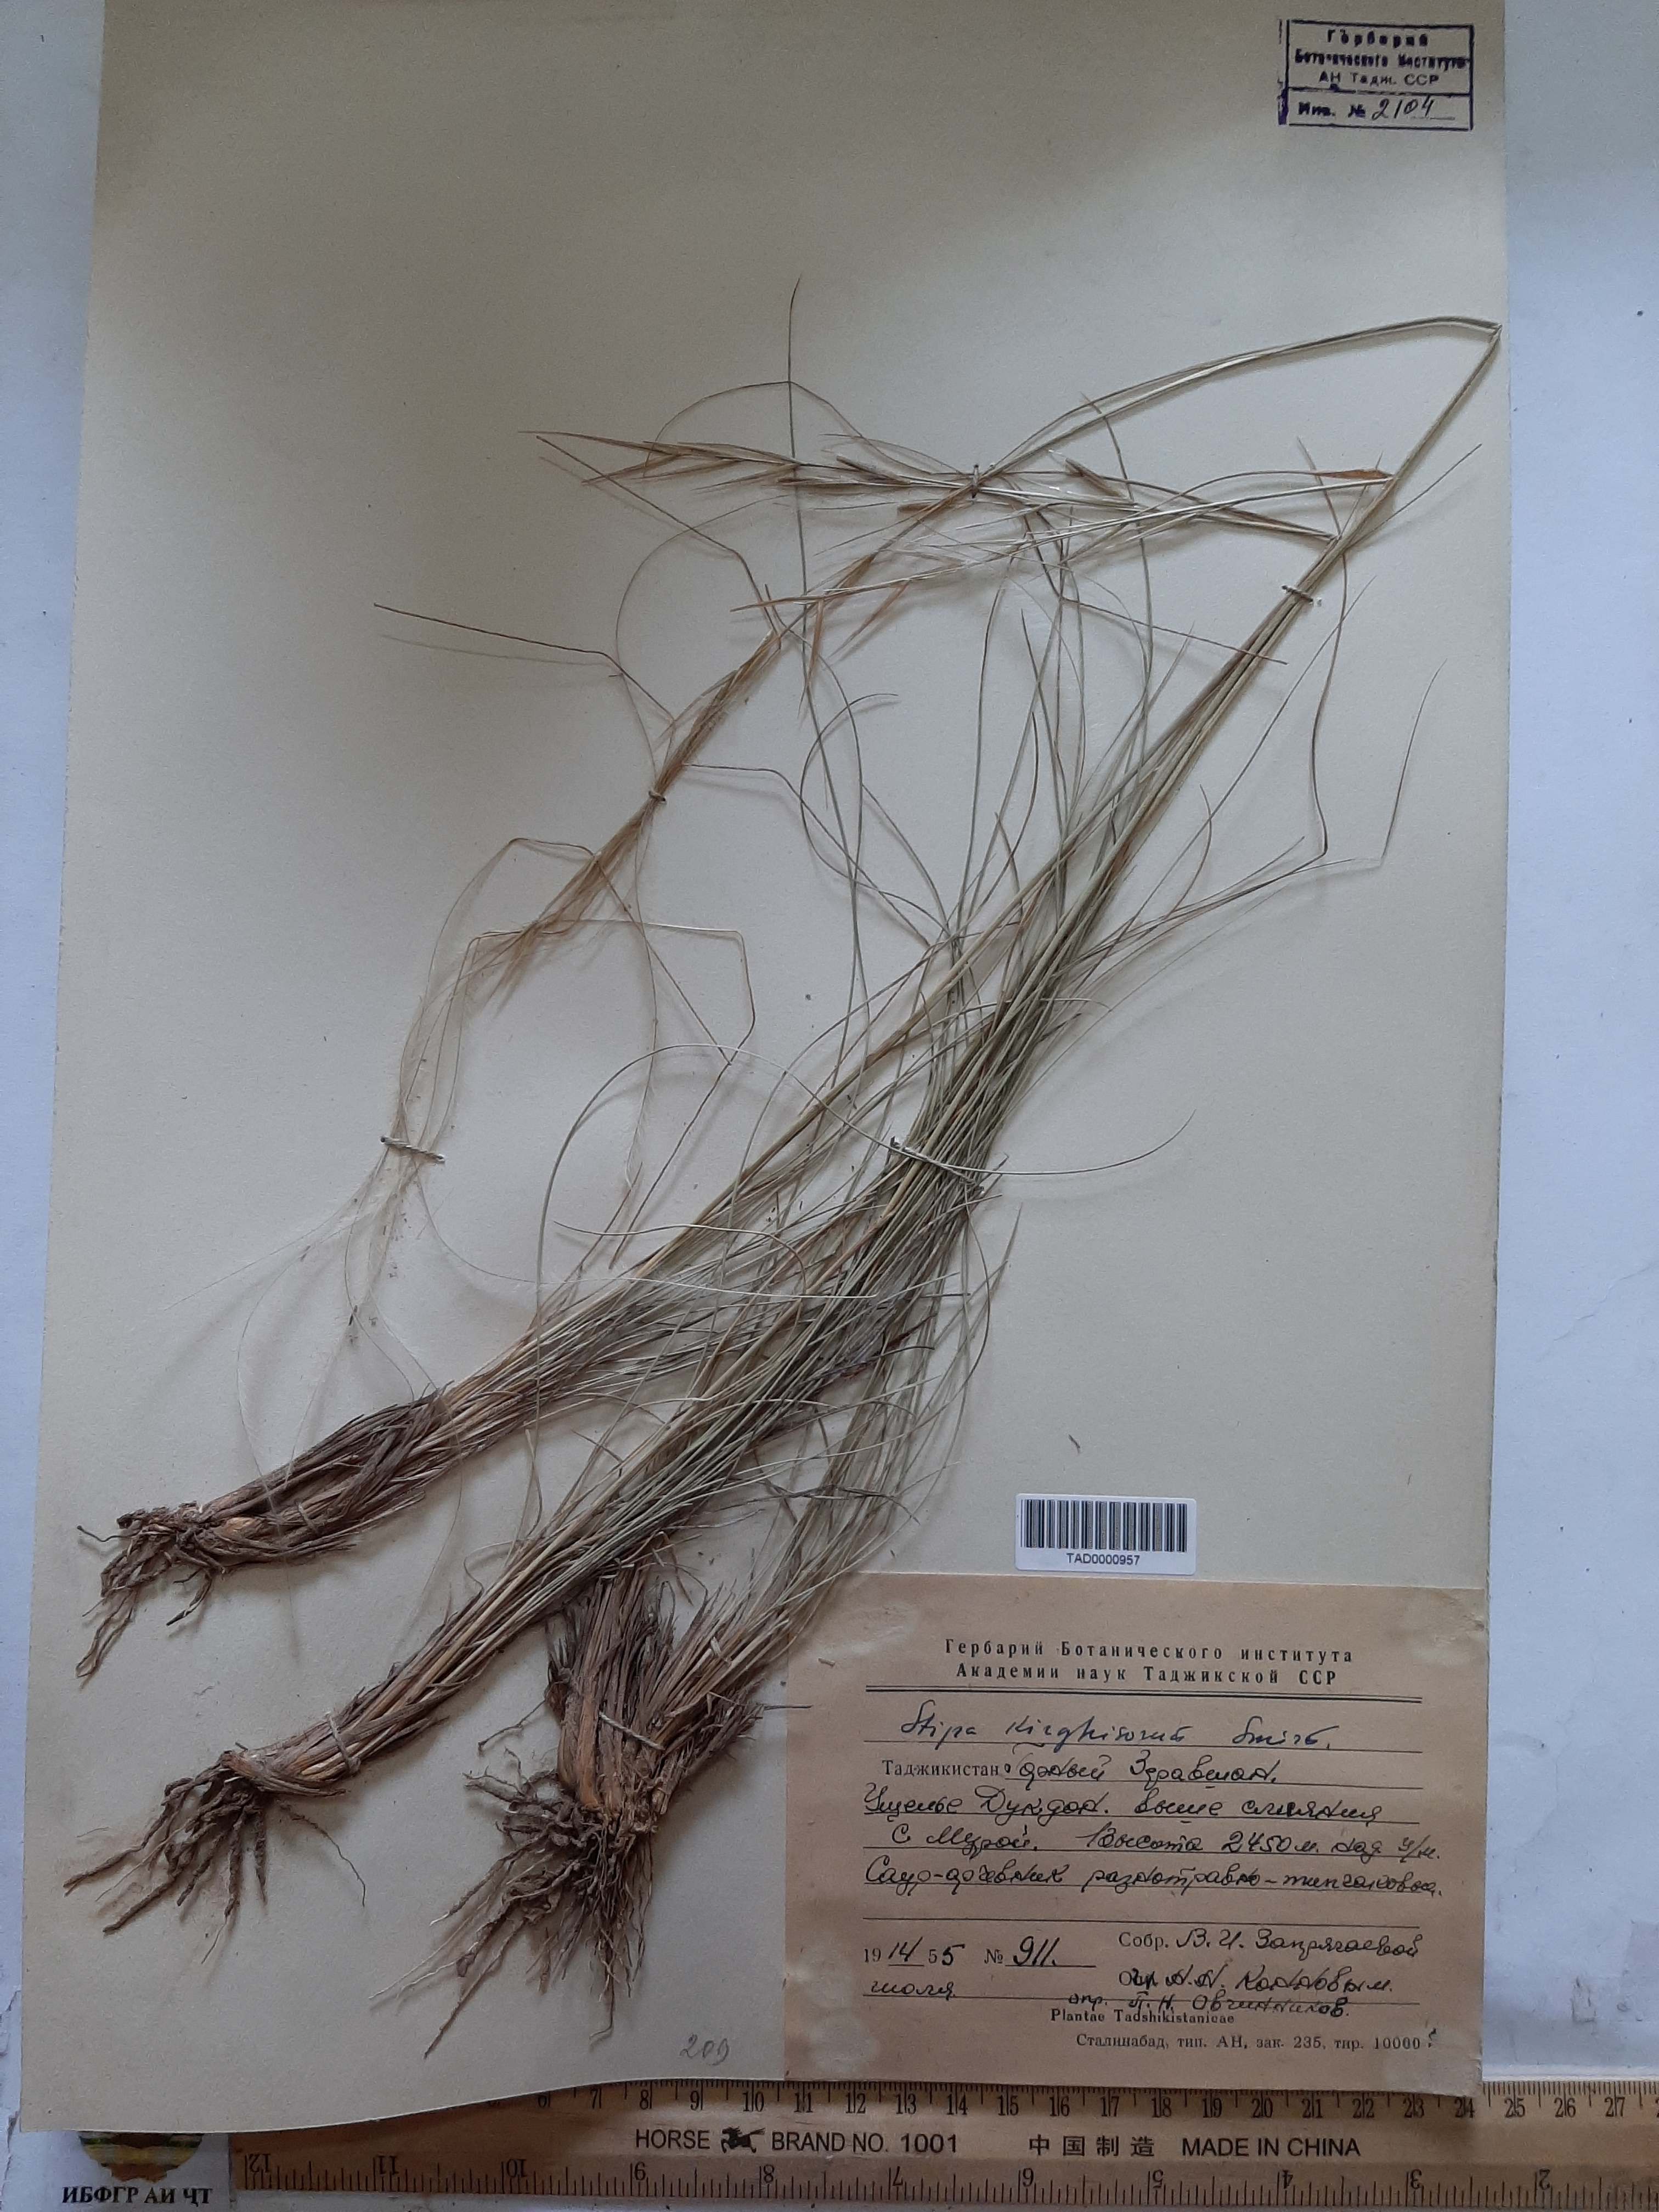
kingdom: Plantae
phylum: Tracheophyta
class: Liliopsida
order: Poales
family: Poaceae
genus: Stipa
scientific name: Stipa kirghisorum
